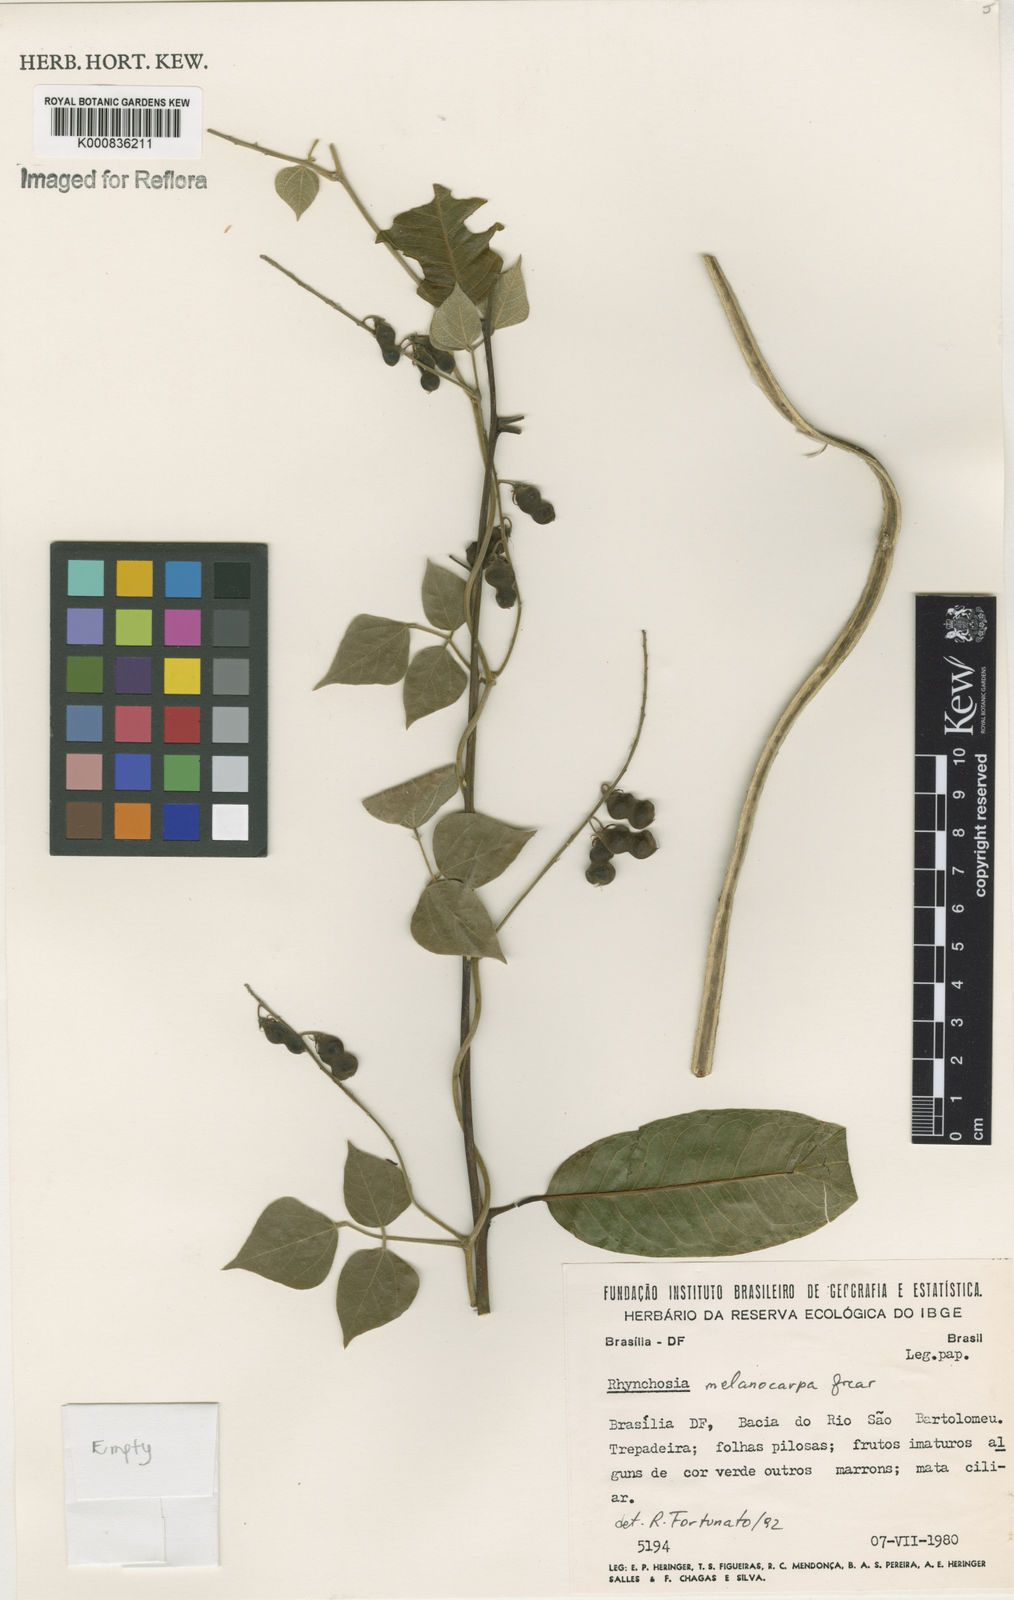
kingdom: Plantae
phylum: Tracheophyta
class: Magnoliopsida
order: Fabales
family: Fabaceae
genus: Rhynchosia
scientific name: Rhynchosia melanocarpa
